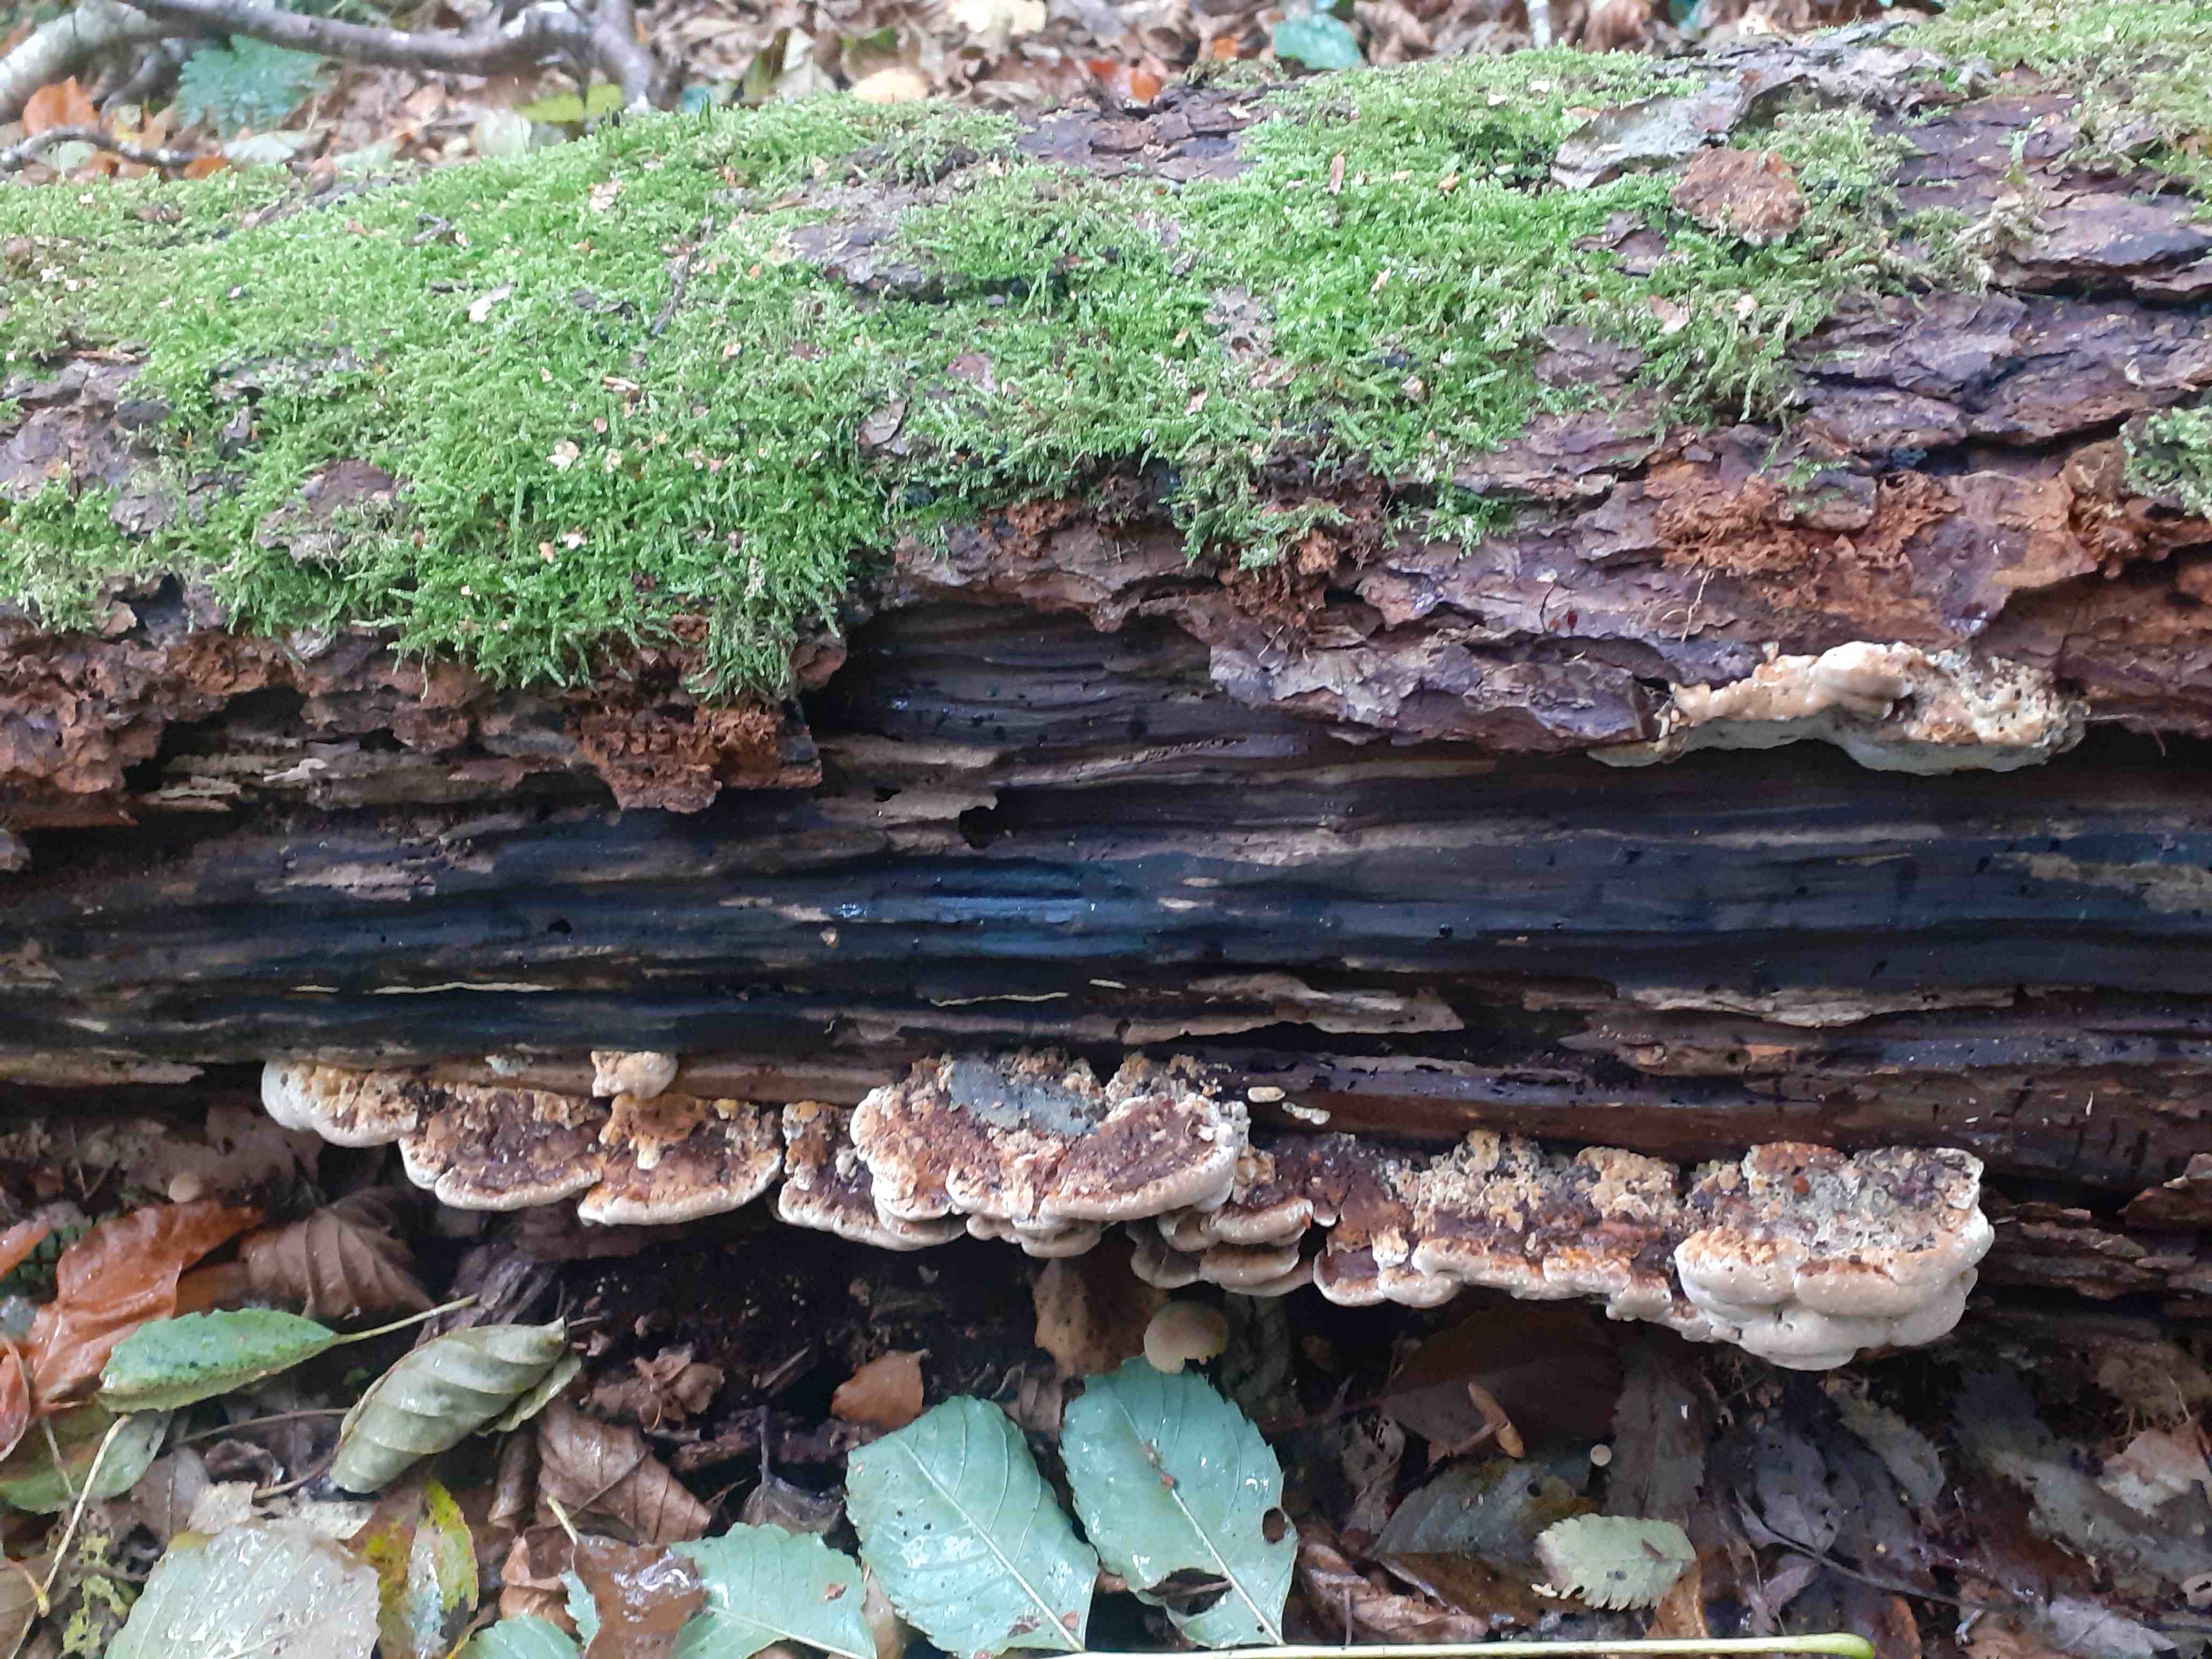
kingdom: Fungi
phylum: Basidiomycota
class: Agaricomycetes
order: Hymenochaetales
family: Hymenochaetaceae
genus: Xanthoporia
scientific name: Xanthoporia radiata
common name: elle-spejlporesvamp
